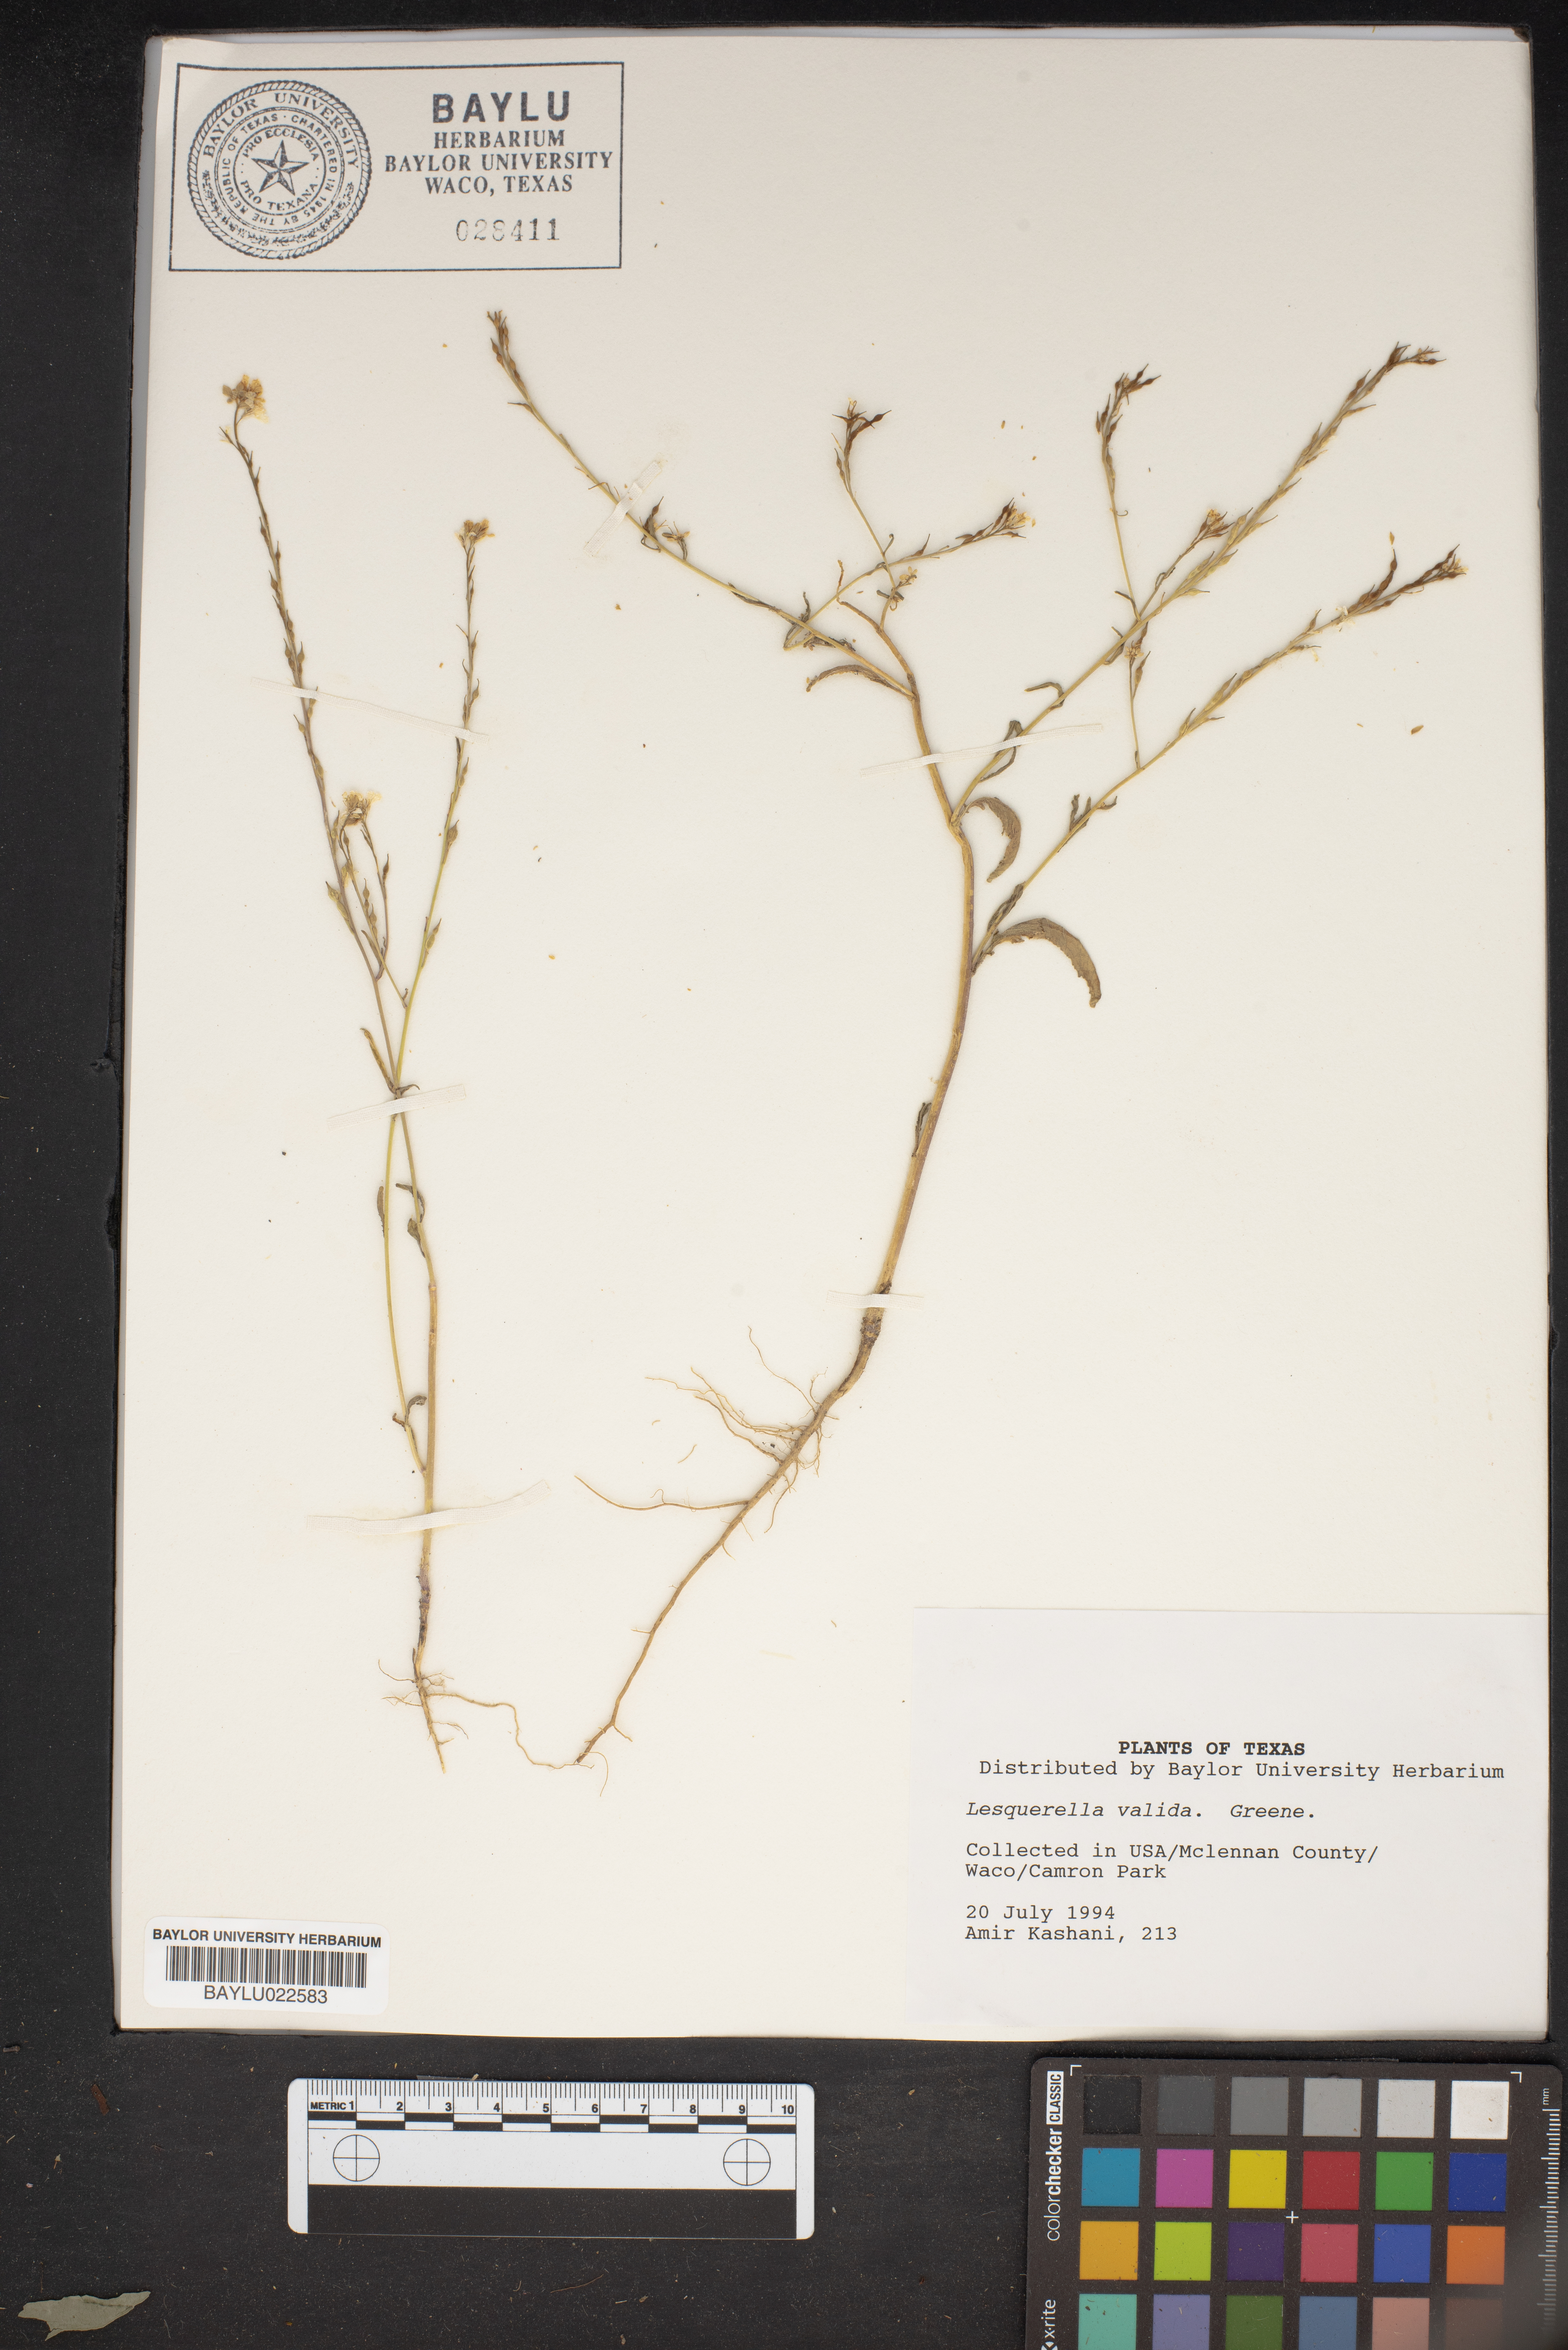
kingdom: Plantae
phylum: Tracheophyta
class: Magnoliopsida
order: Brassicales
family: Brassicaceae
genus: Physaria
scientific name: Physaria valida
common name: Strong bladderpod
